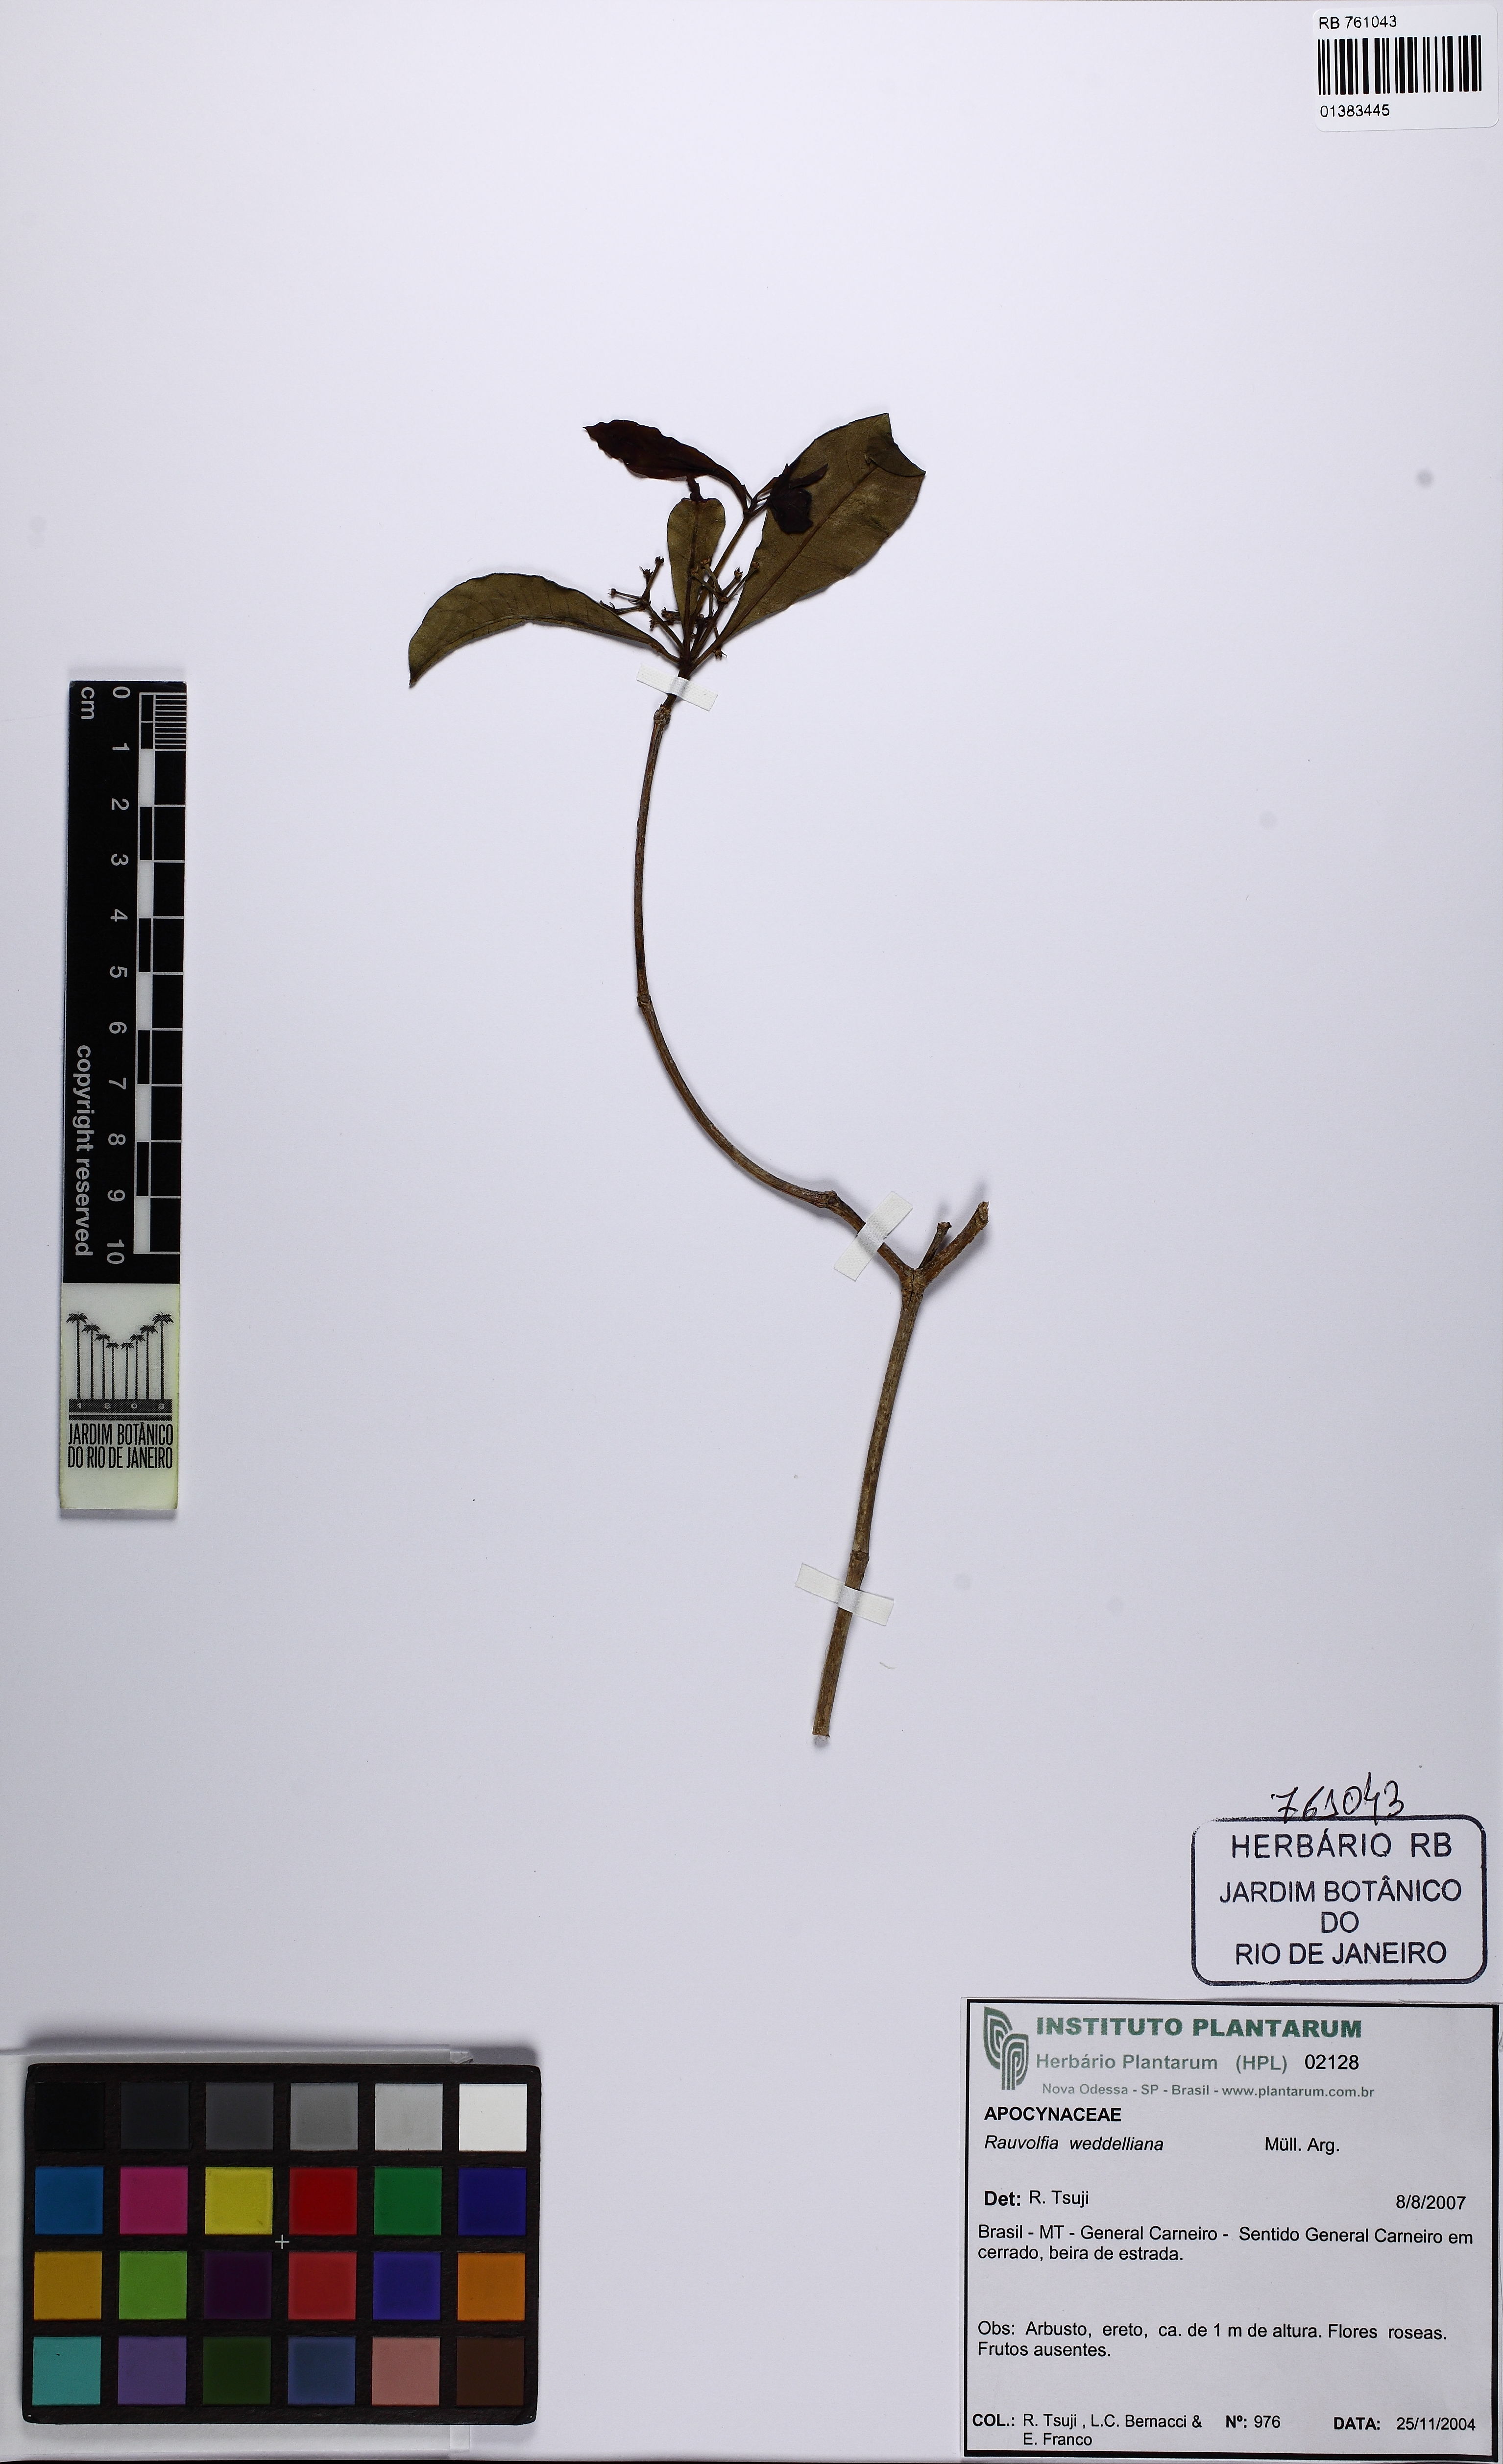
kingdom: Plantae
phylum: Tracheophyta
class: Magnoliopsida
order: Gentianales
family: Apocynaceae
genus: Rauvolfia
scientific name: Rauvolfia weddeliana
